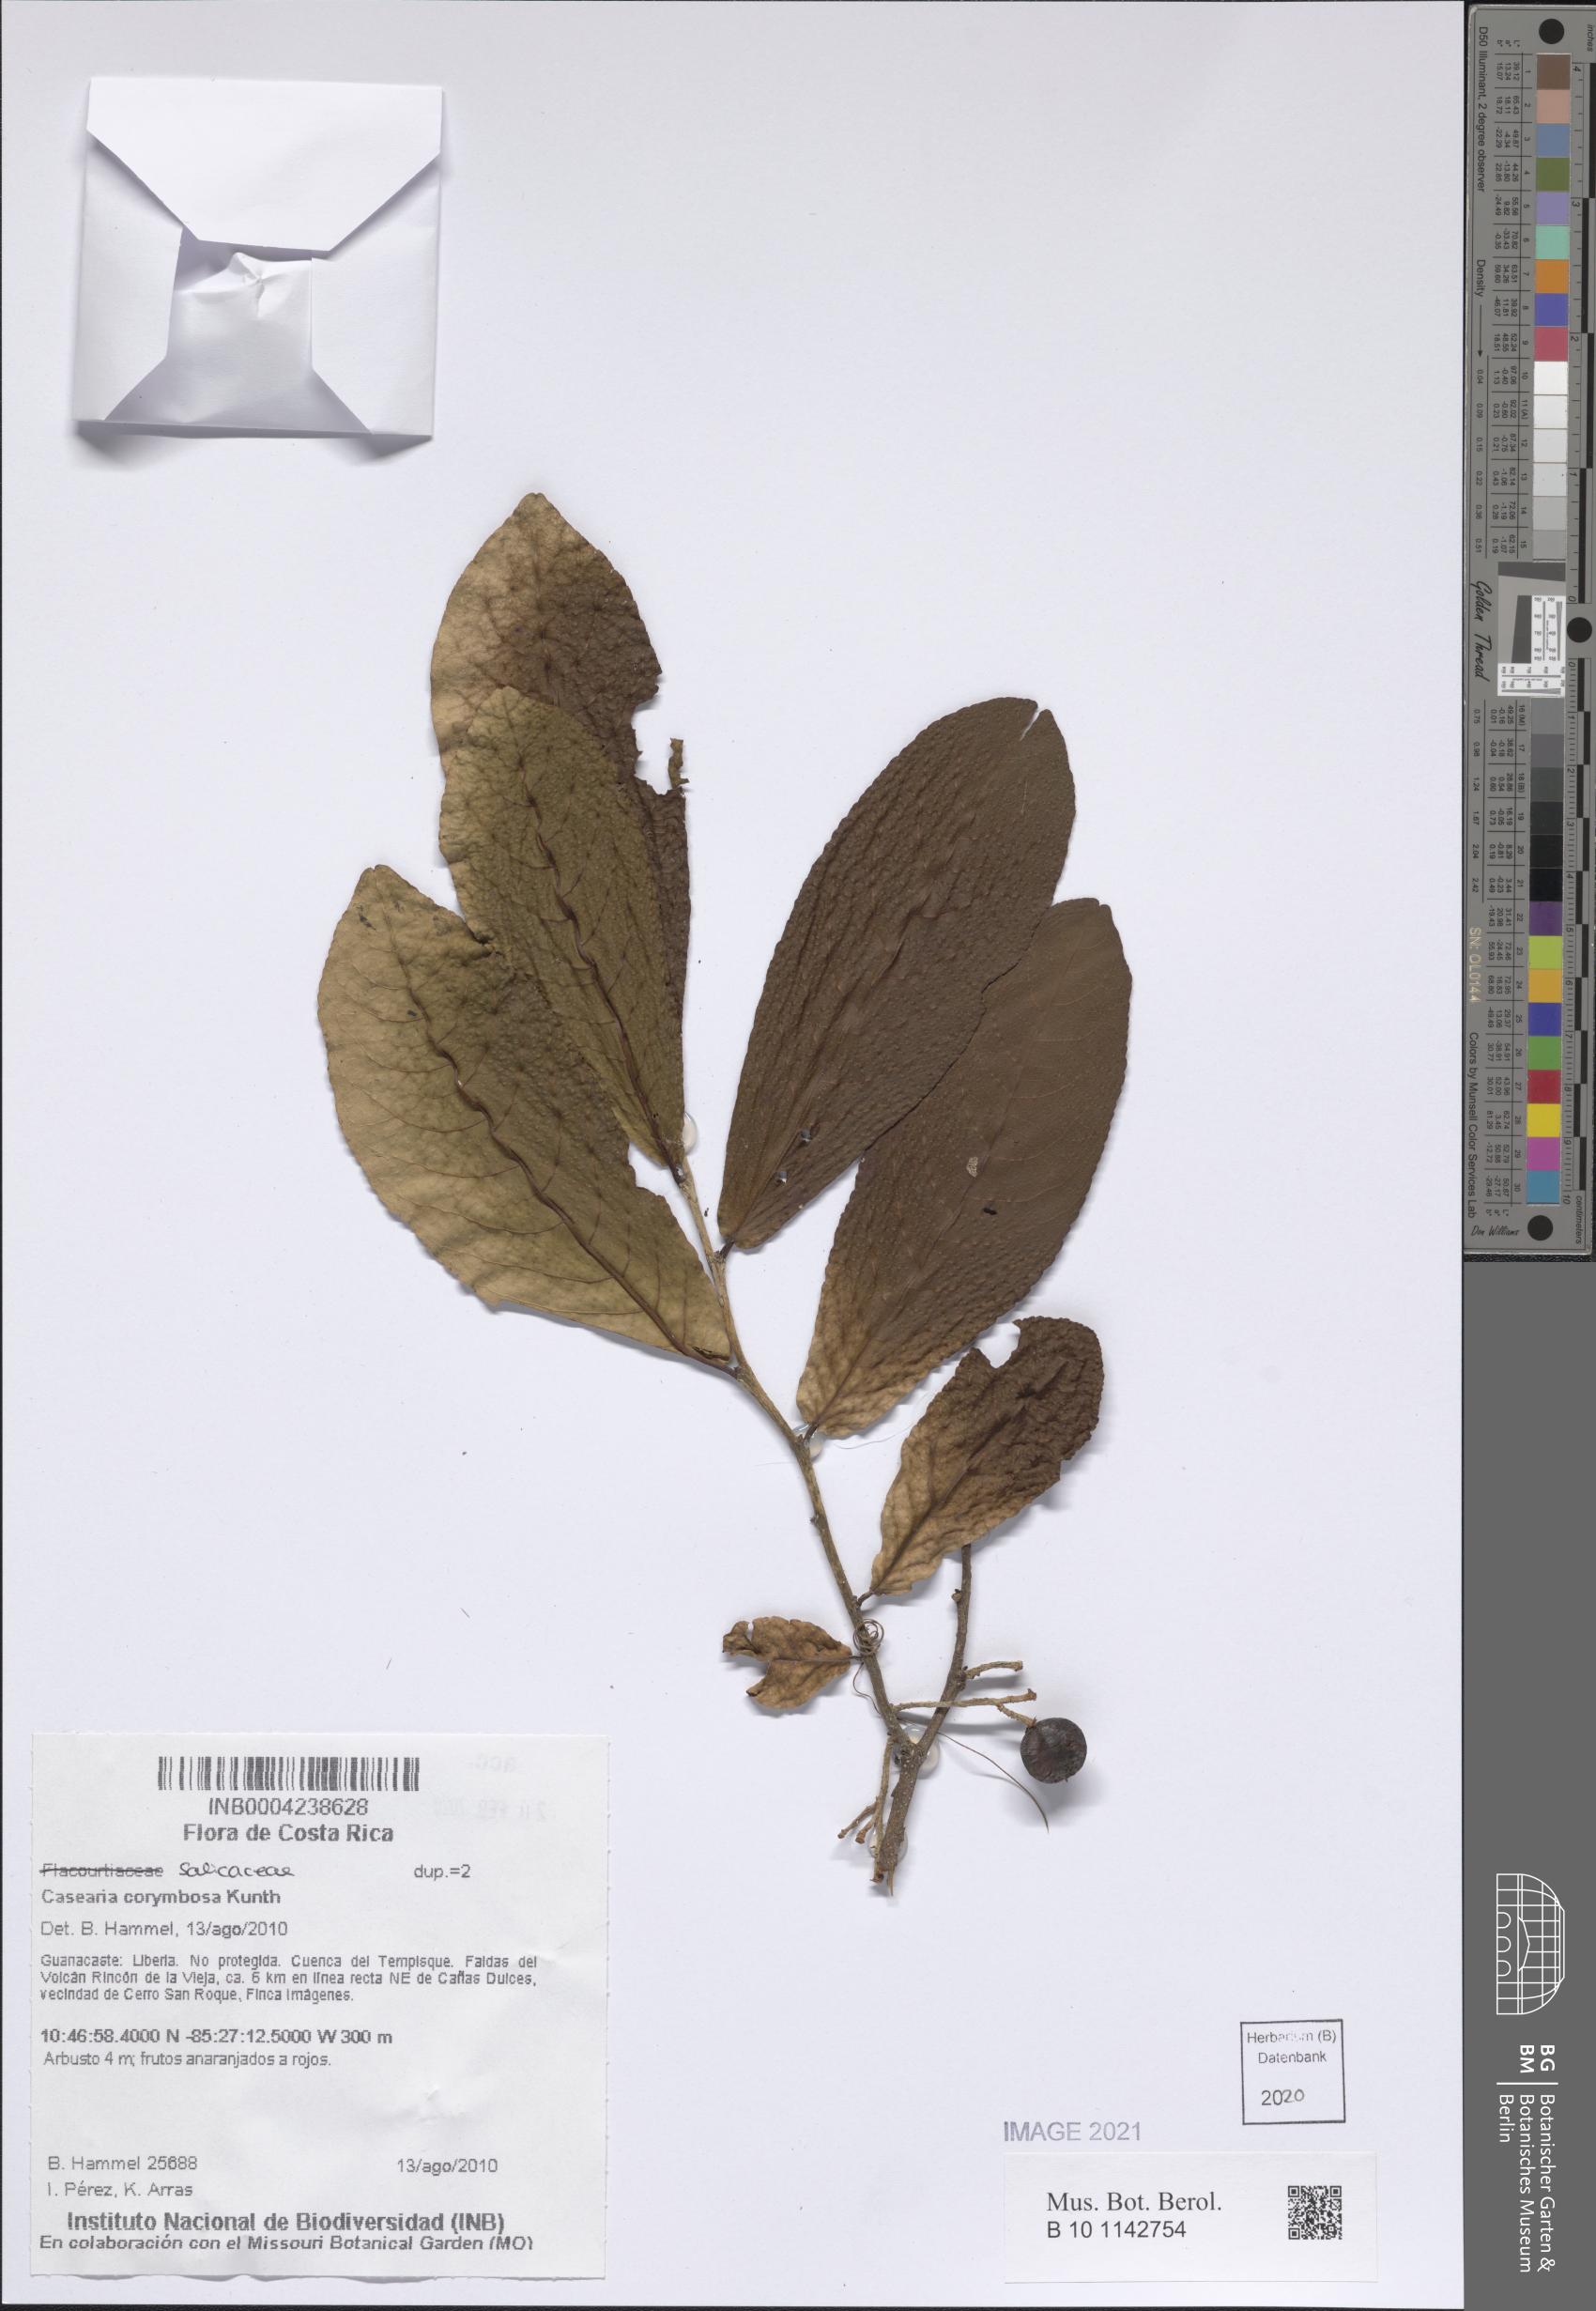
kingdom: Plantae
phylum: Tracheophyta
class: Magnoliopsida
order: Malpighiales
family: Salicaceae
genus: Casearia
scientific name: Casearia corymbosa
